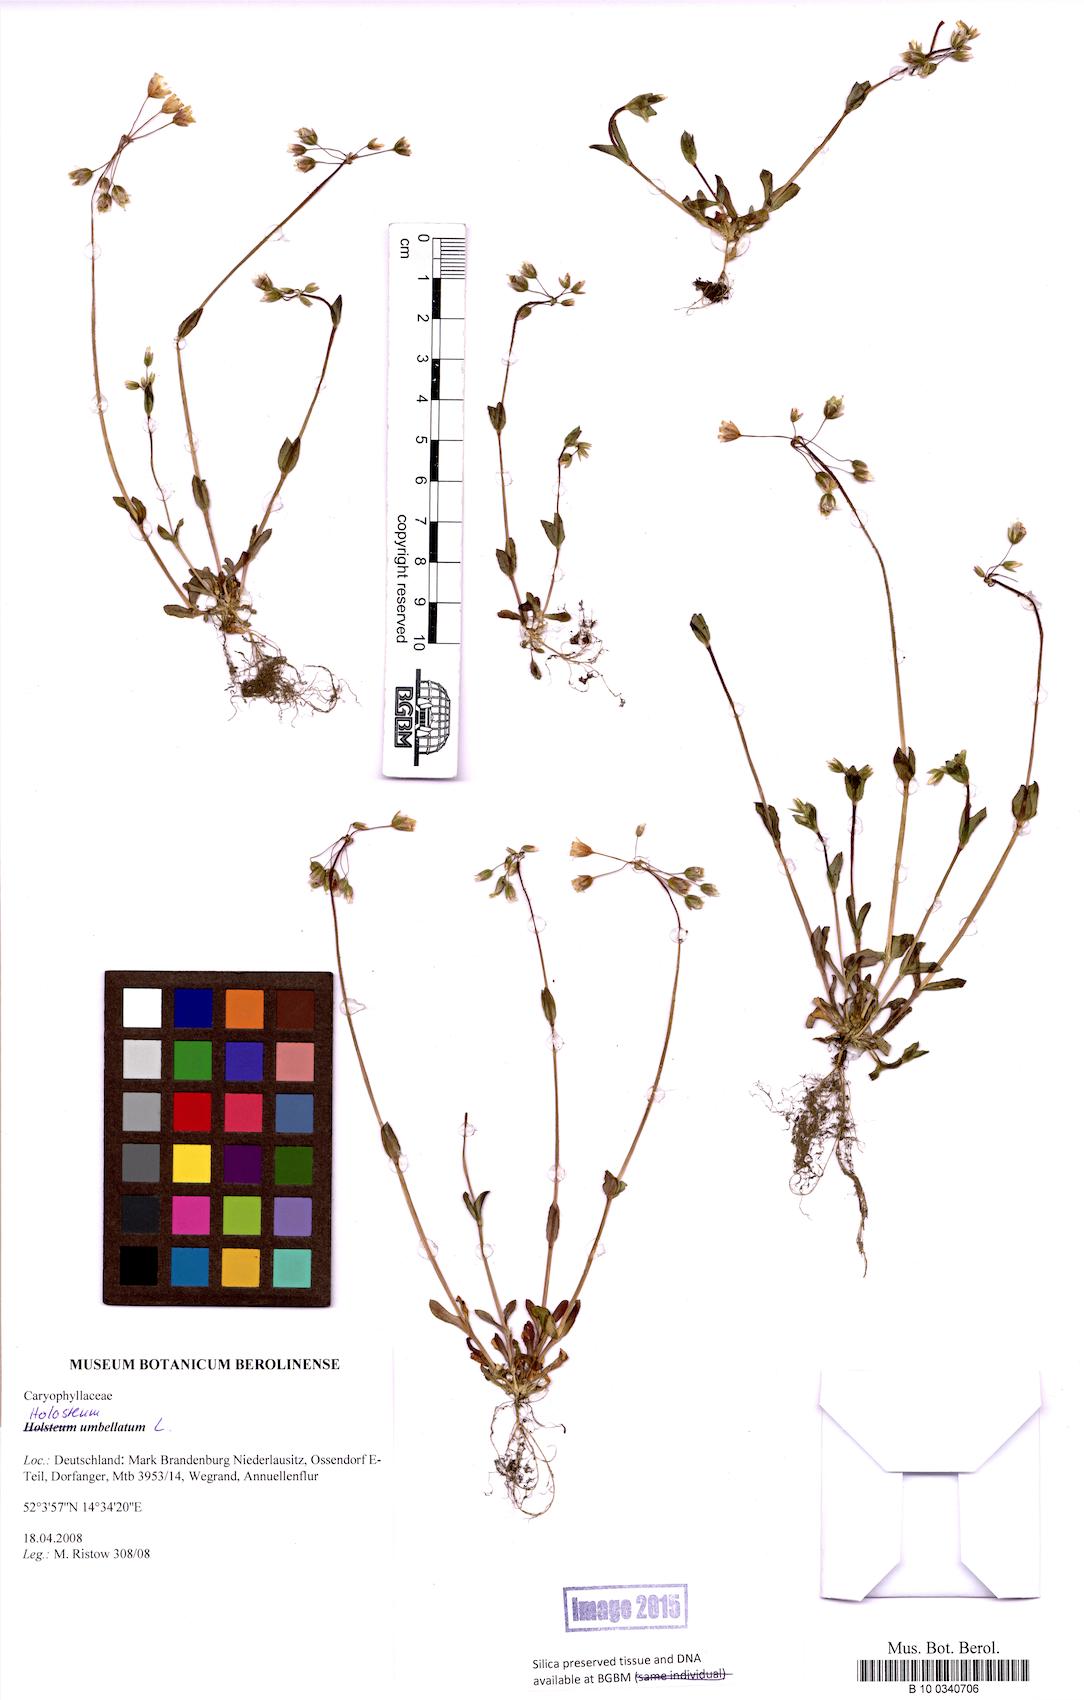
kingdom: Plantae
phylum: Tracheophyta
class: Magnoliopsida
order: Caryophyllales
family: Caryophyllaceae
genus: Holosteum
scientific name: Holosteum umbellatum
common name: Jagged chickweed
